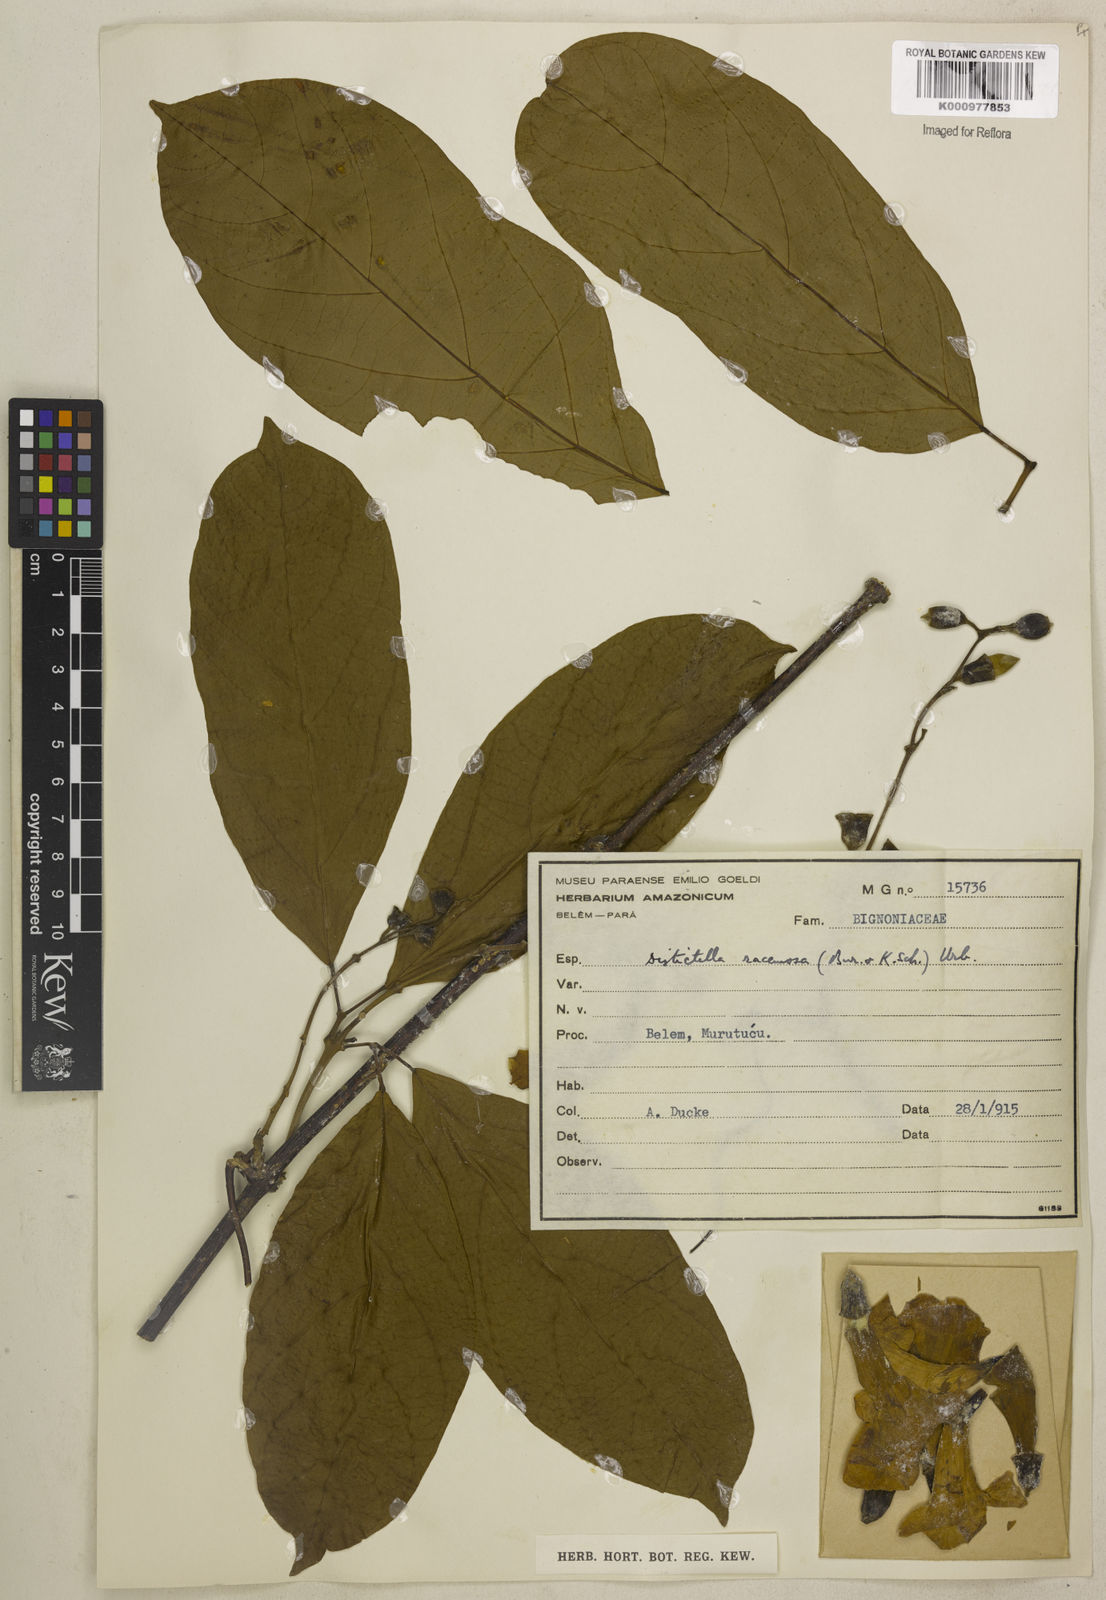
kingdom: Plantae
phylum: Tracheophyta
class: Magnoliopsida
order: Lamiales
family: Bignoniaceae
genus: Amphilophium
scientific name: Amphilophium racemosum
